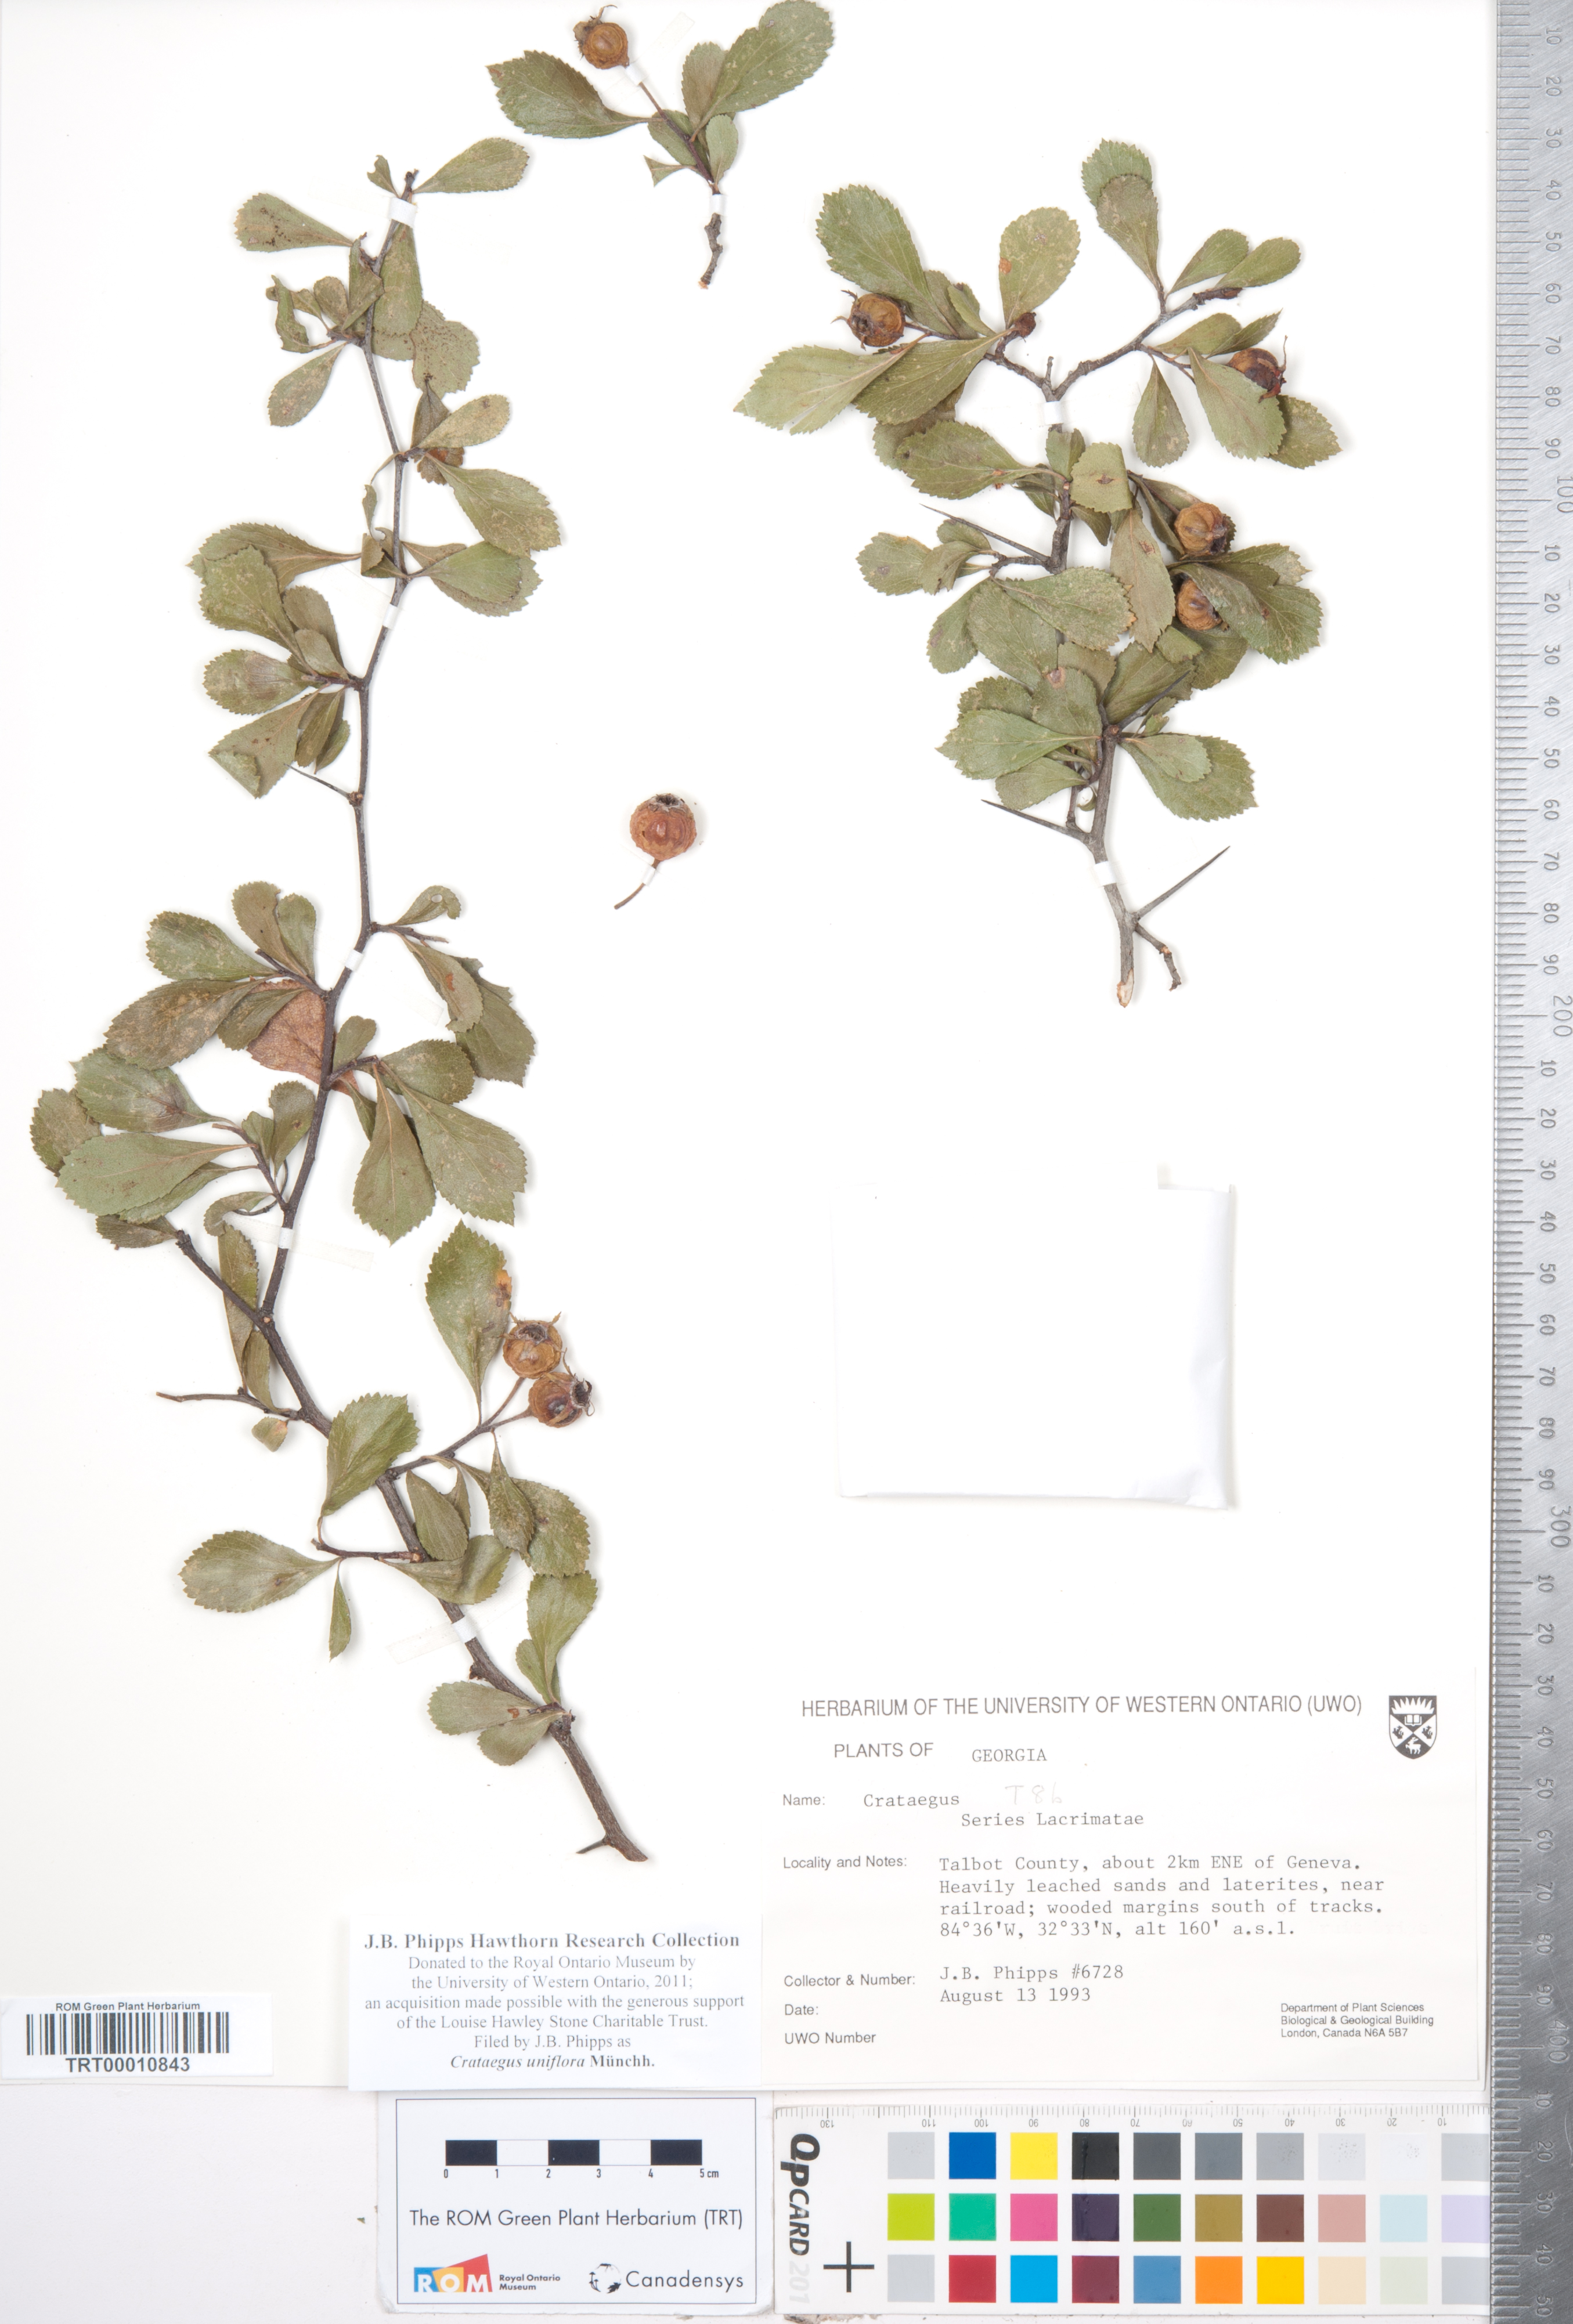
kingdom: Plantae
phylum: Tracheophyta
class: Magnoliopsida
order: Rosales
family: Rosaceae
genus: Crataegus
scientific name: Crataegus uniflora
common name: One-flower hawthorn
